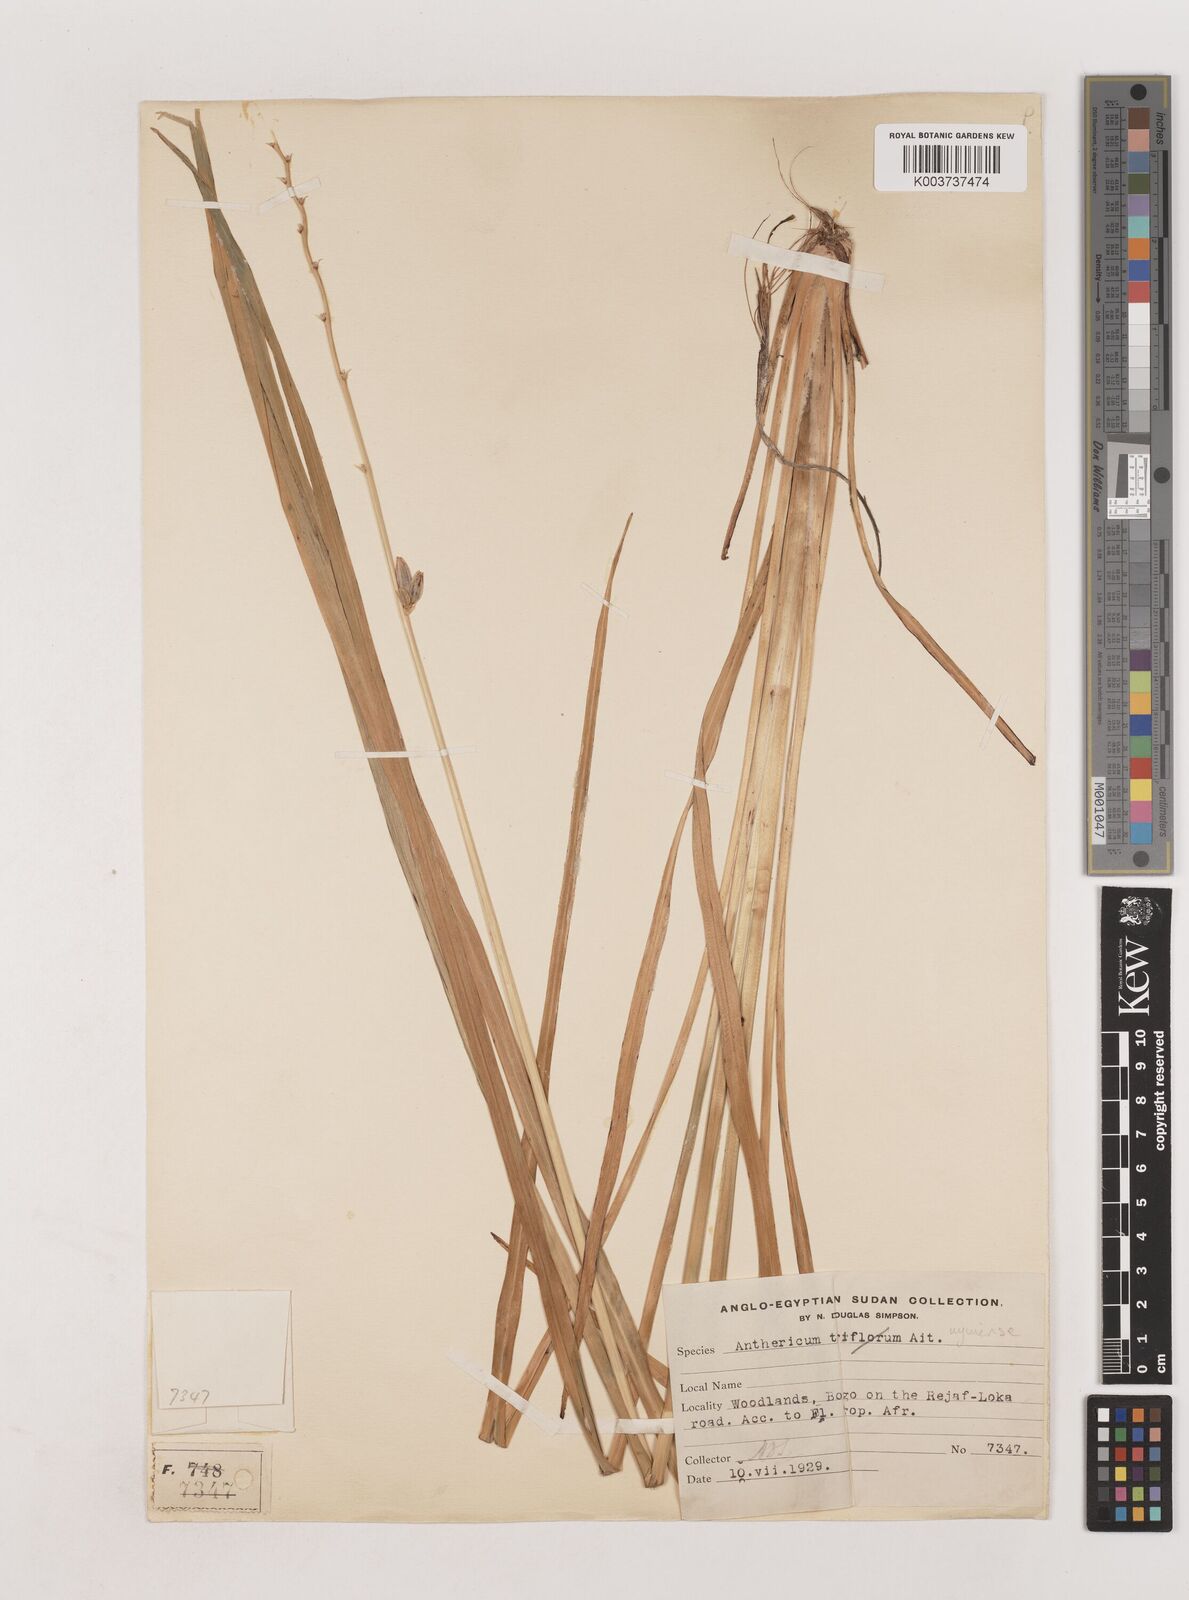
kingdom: Plantae
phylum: Tracheophyta
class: Liliopsida
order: Asparagales
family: Asparagaceae
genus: Chlorophytum
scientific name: Chlorophytum cameronii
